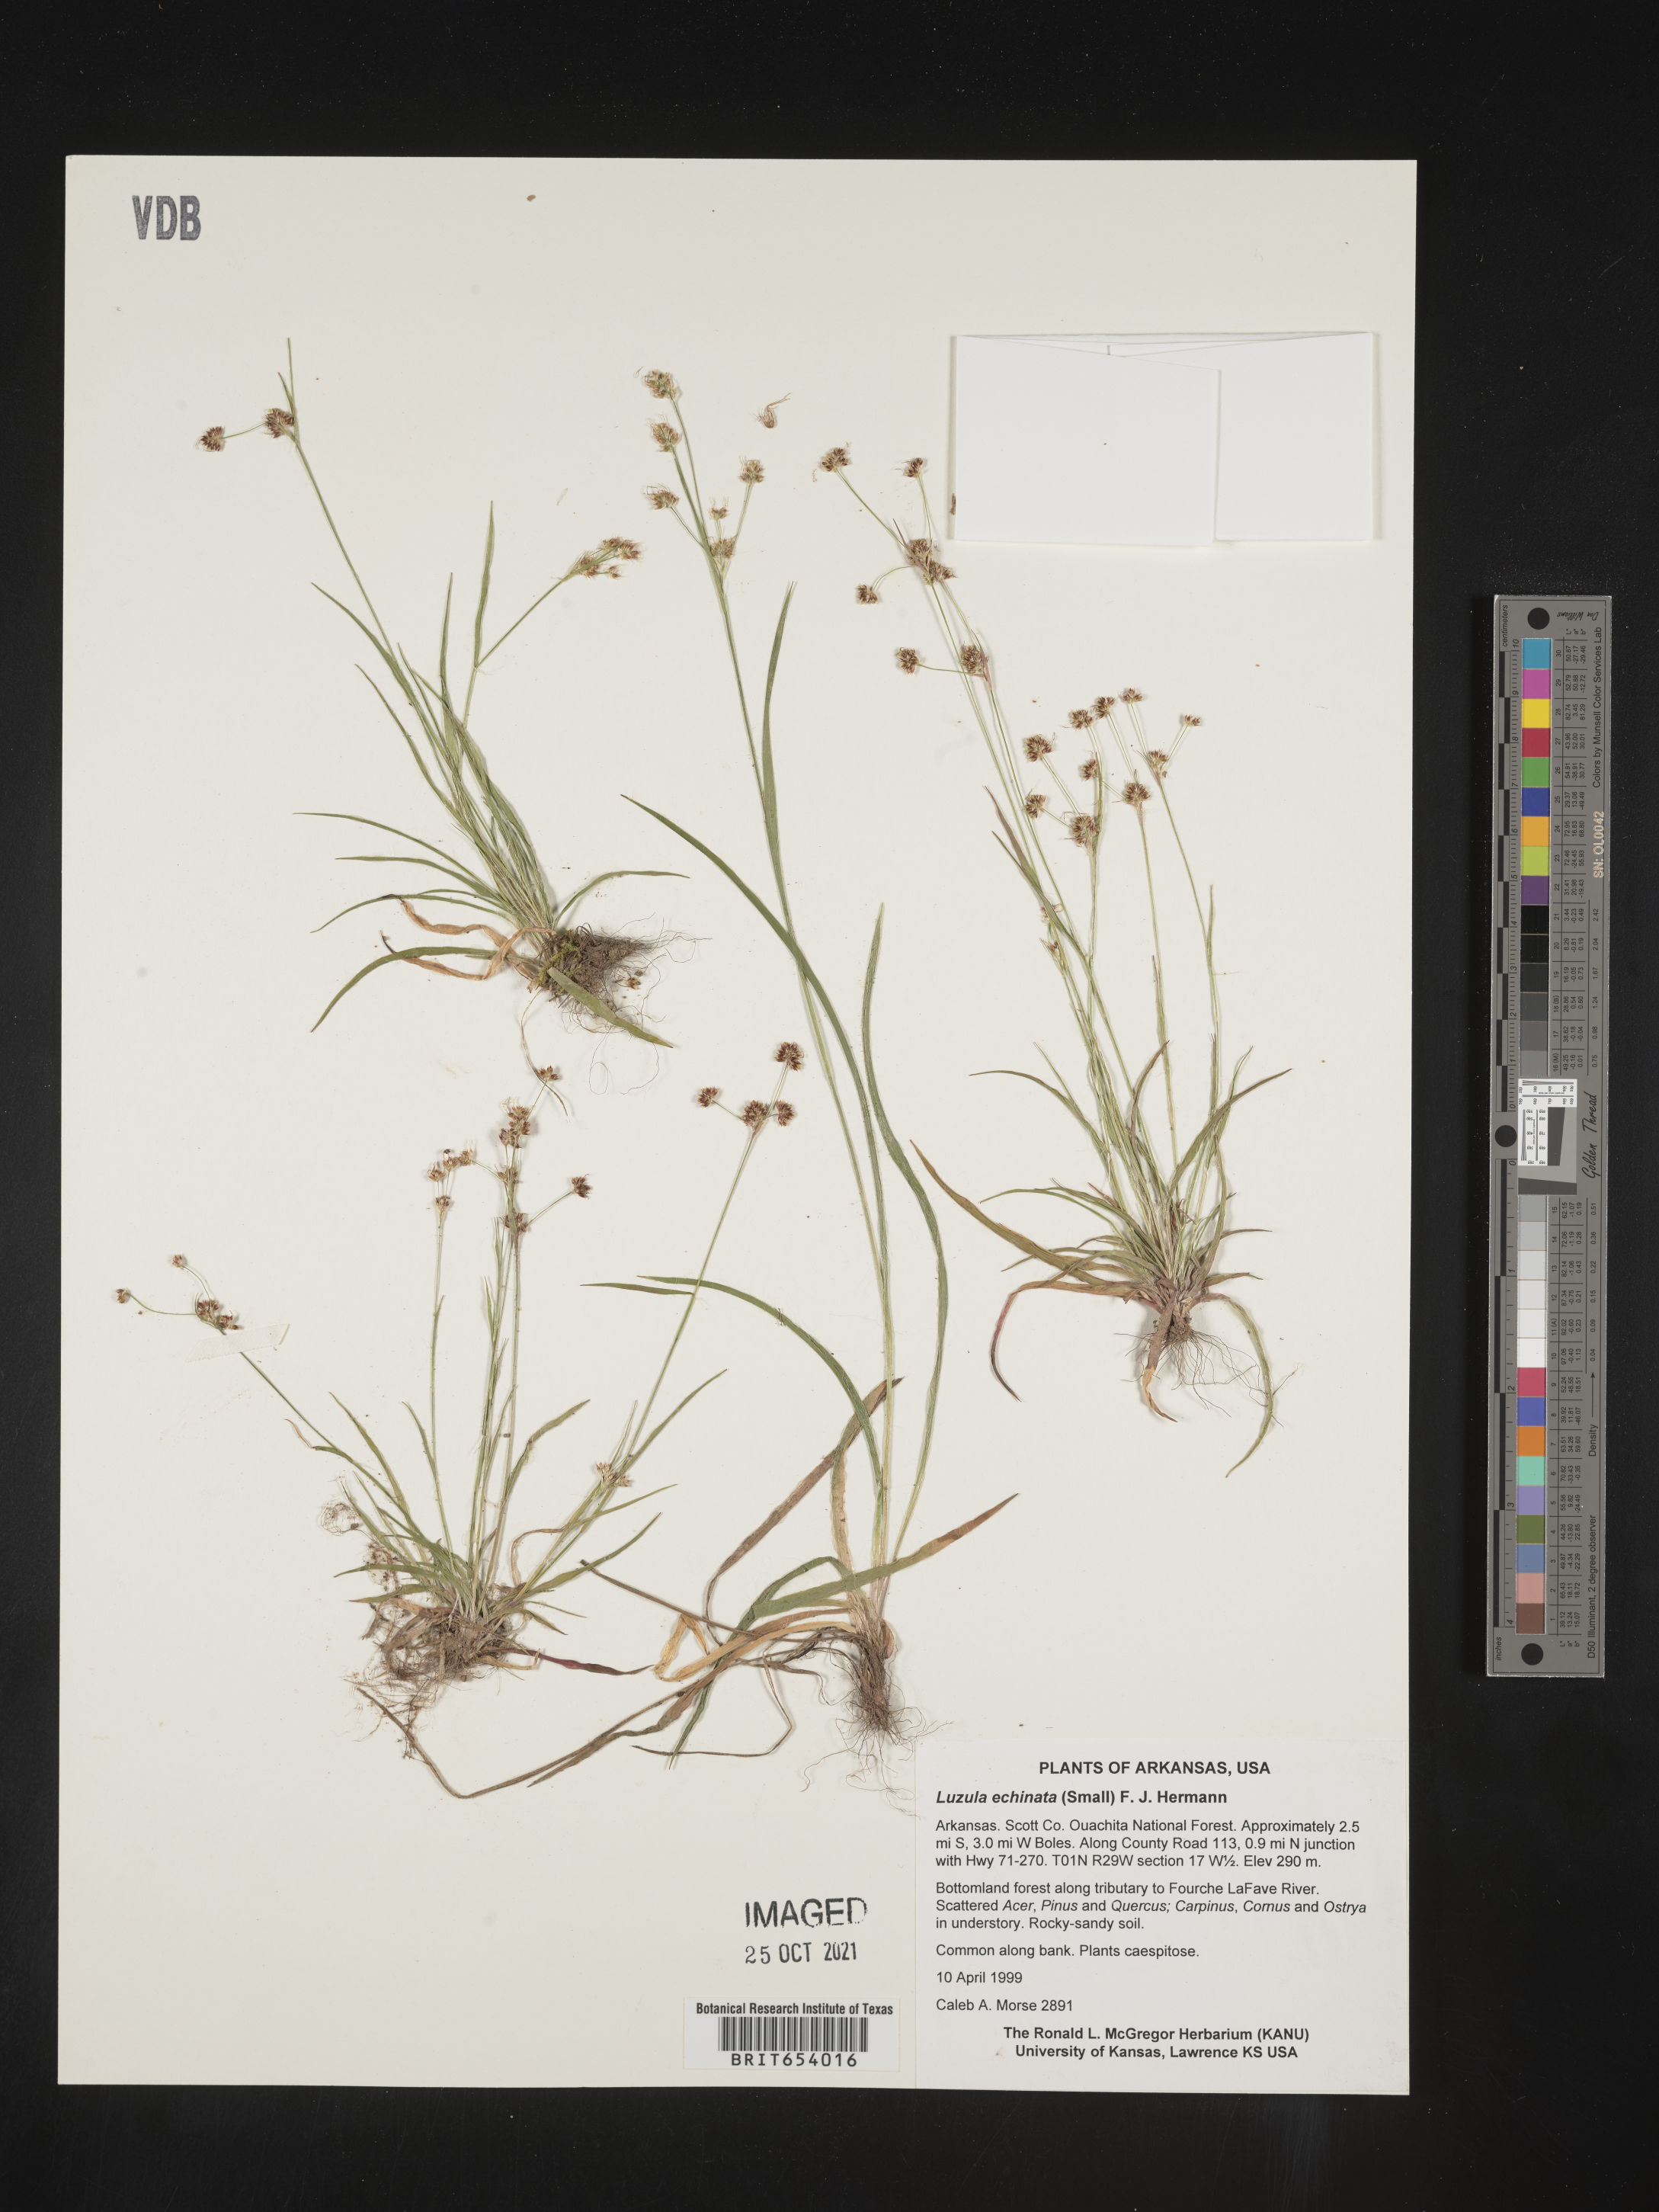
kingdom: Plantae
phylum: Tracheophyta
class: Liliopsida
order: Poales
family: Juncaceae
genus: Luzula
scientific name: Luzula echinata
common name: Hedgehog woodrush
